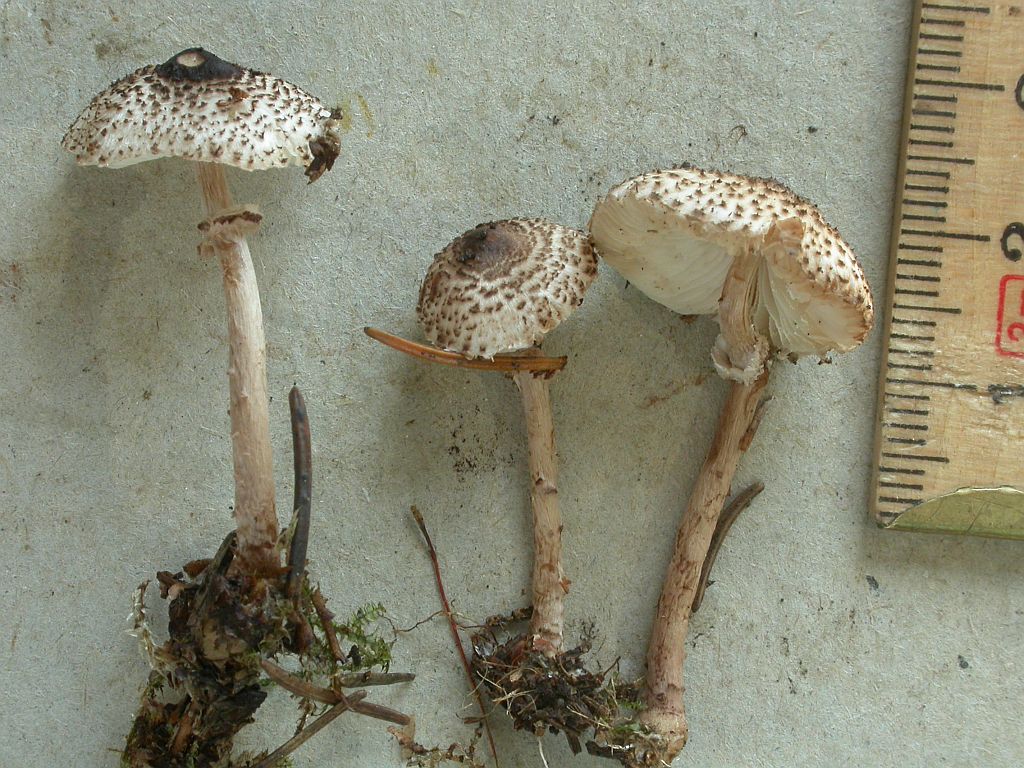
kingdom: Fungi
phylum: Basidiomycota
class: Agaricomycetes
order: Agaricales
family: Agaricaceae
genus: Lepiota
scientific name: Lepiota felina
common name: sortskællet parasolhat
